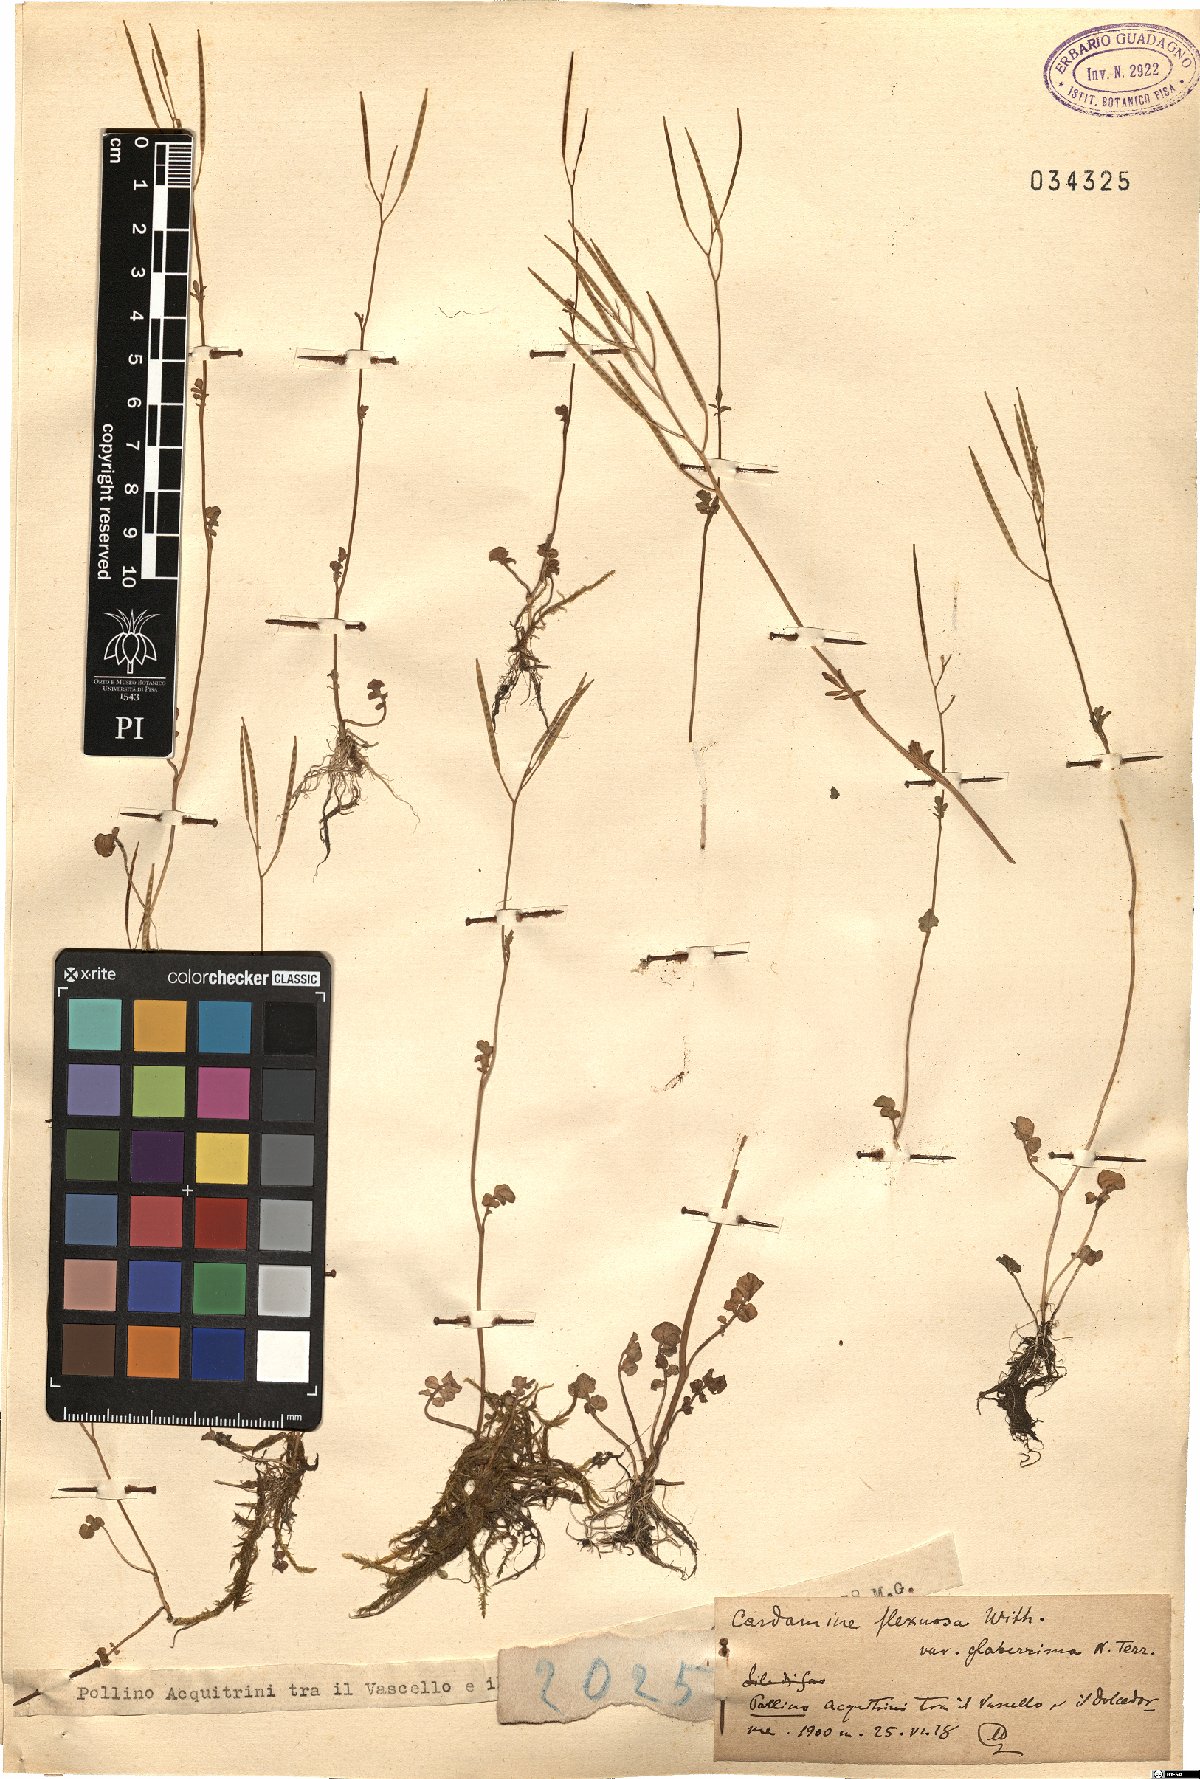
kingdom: Plantae
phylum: Tracheophyta
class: Magnoliopsida
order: Brassicales
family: Brassicaceae
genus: Cardamine
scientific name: Cardamine flexuosa
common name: Woodland bittercress
